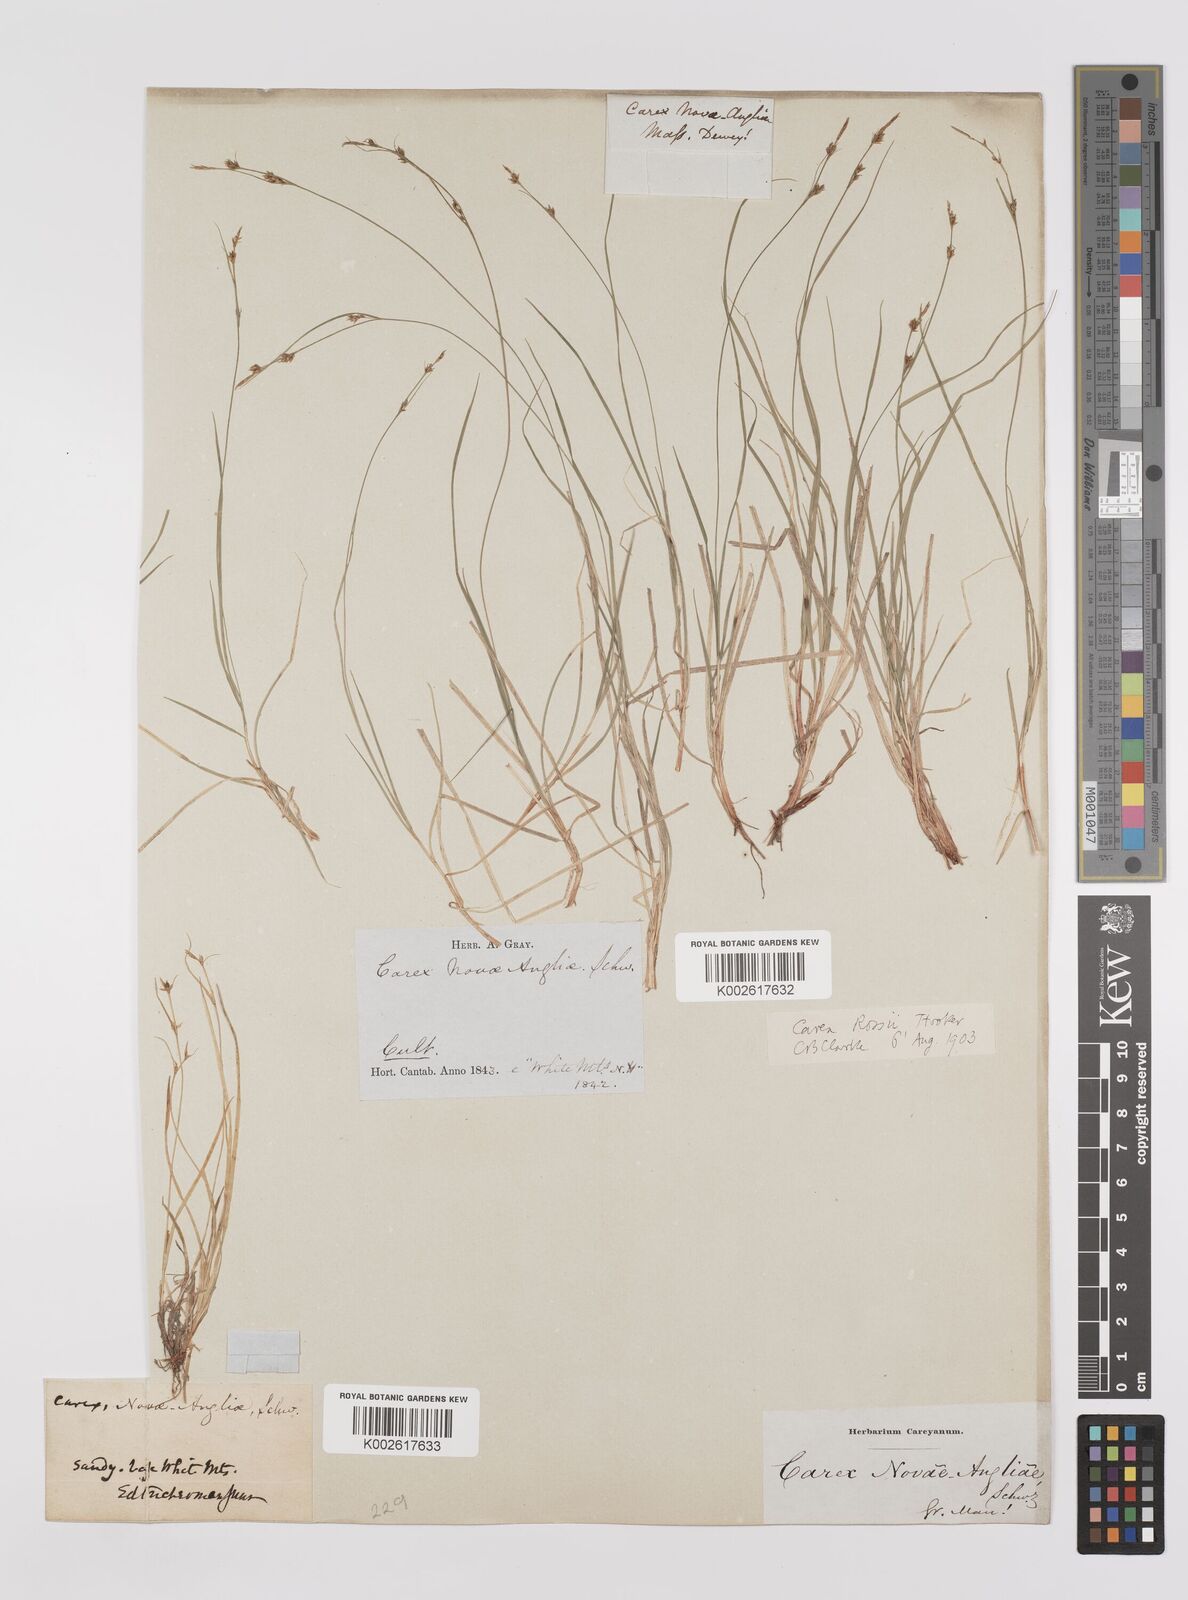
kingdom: Plantae
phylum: Tracheophyta
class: Liliopsida
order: Poales
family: Cyperaceae
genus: Carex
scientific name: Carex rossii
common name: Ross' sedge
